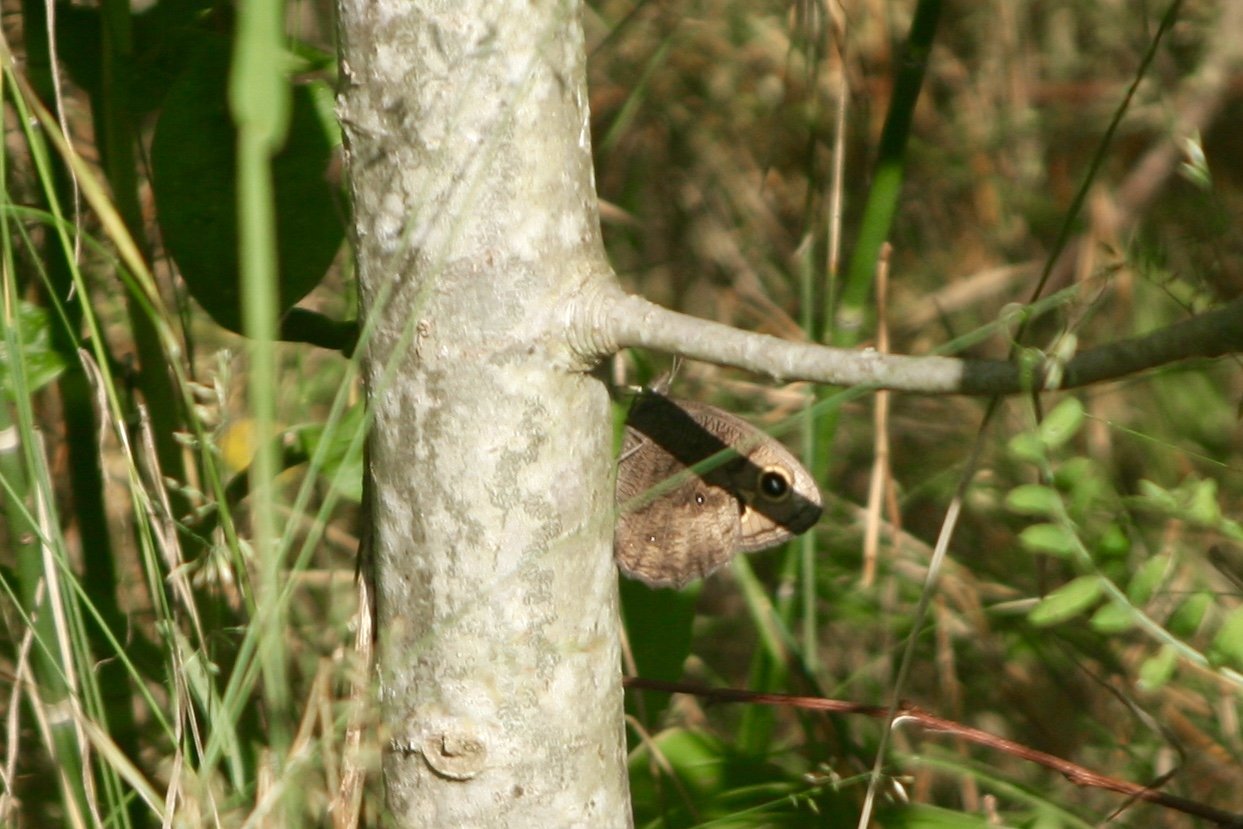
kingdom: Animalia
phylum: Arthropoda
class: Insecta
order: Lepidoptera
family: Nymphalidae
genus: Cercyonis
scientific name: Cercyonis pegala
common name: Common Wood-Nymph
